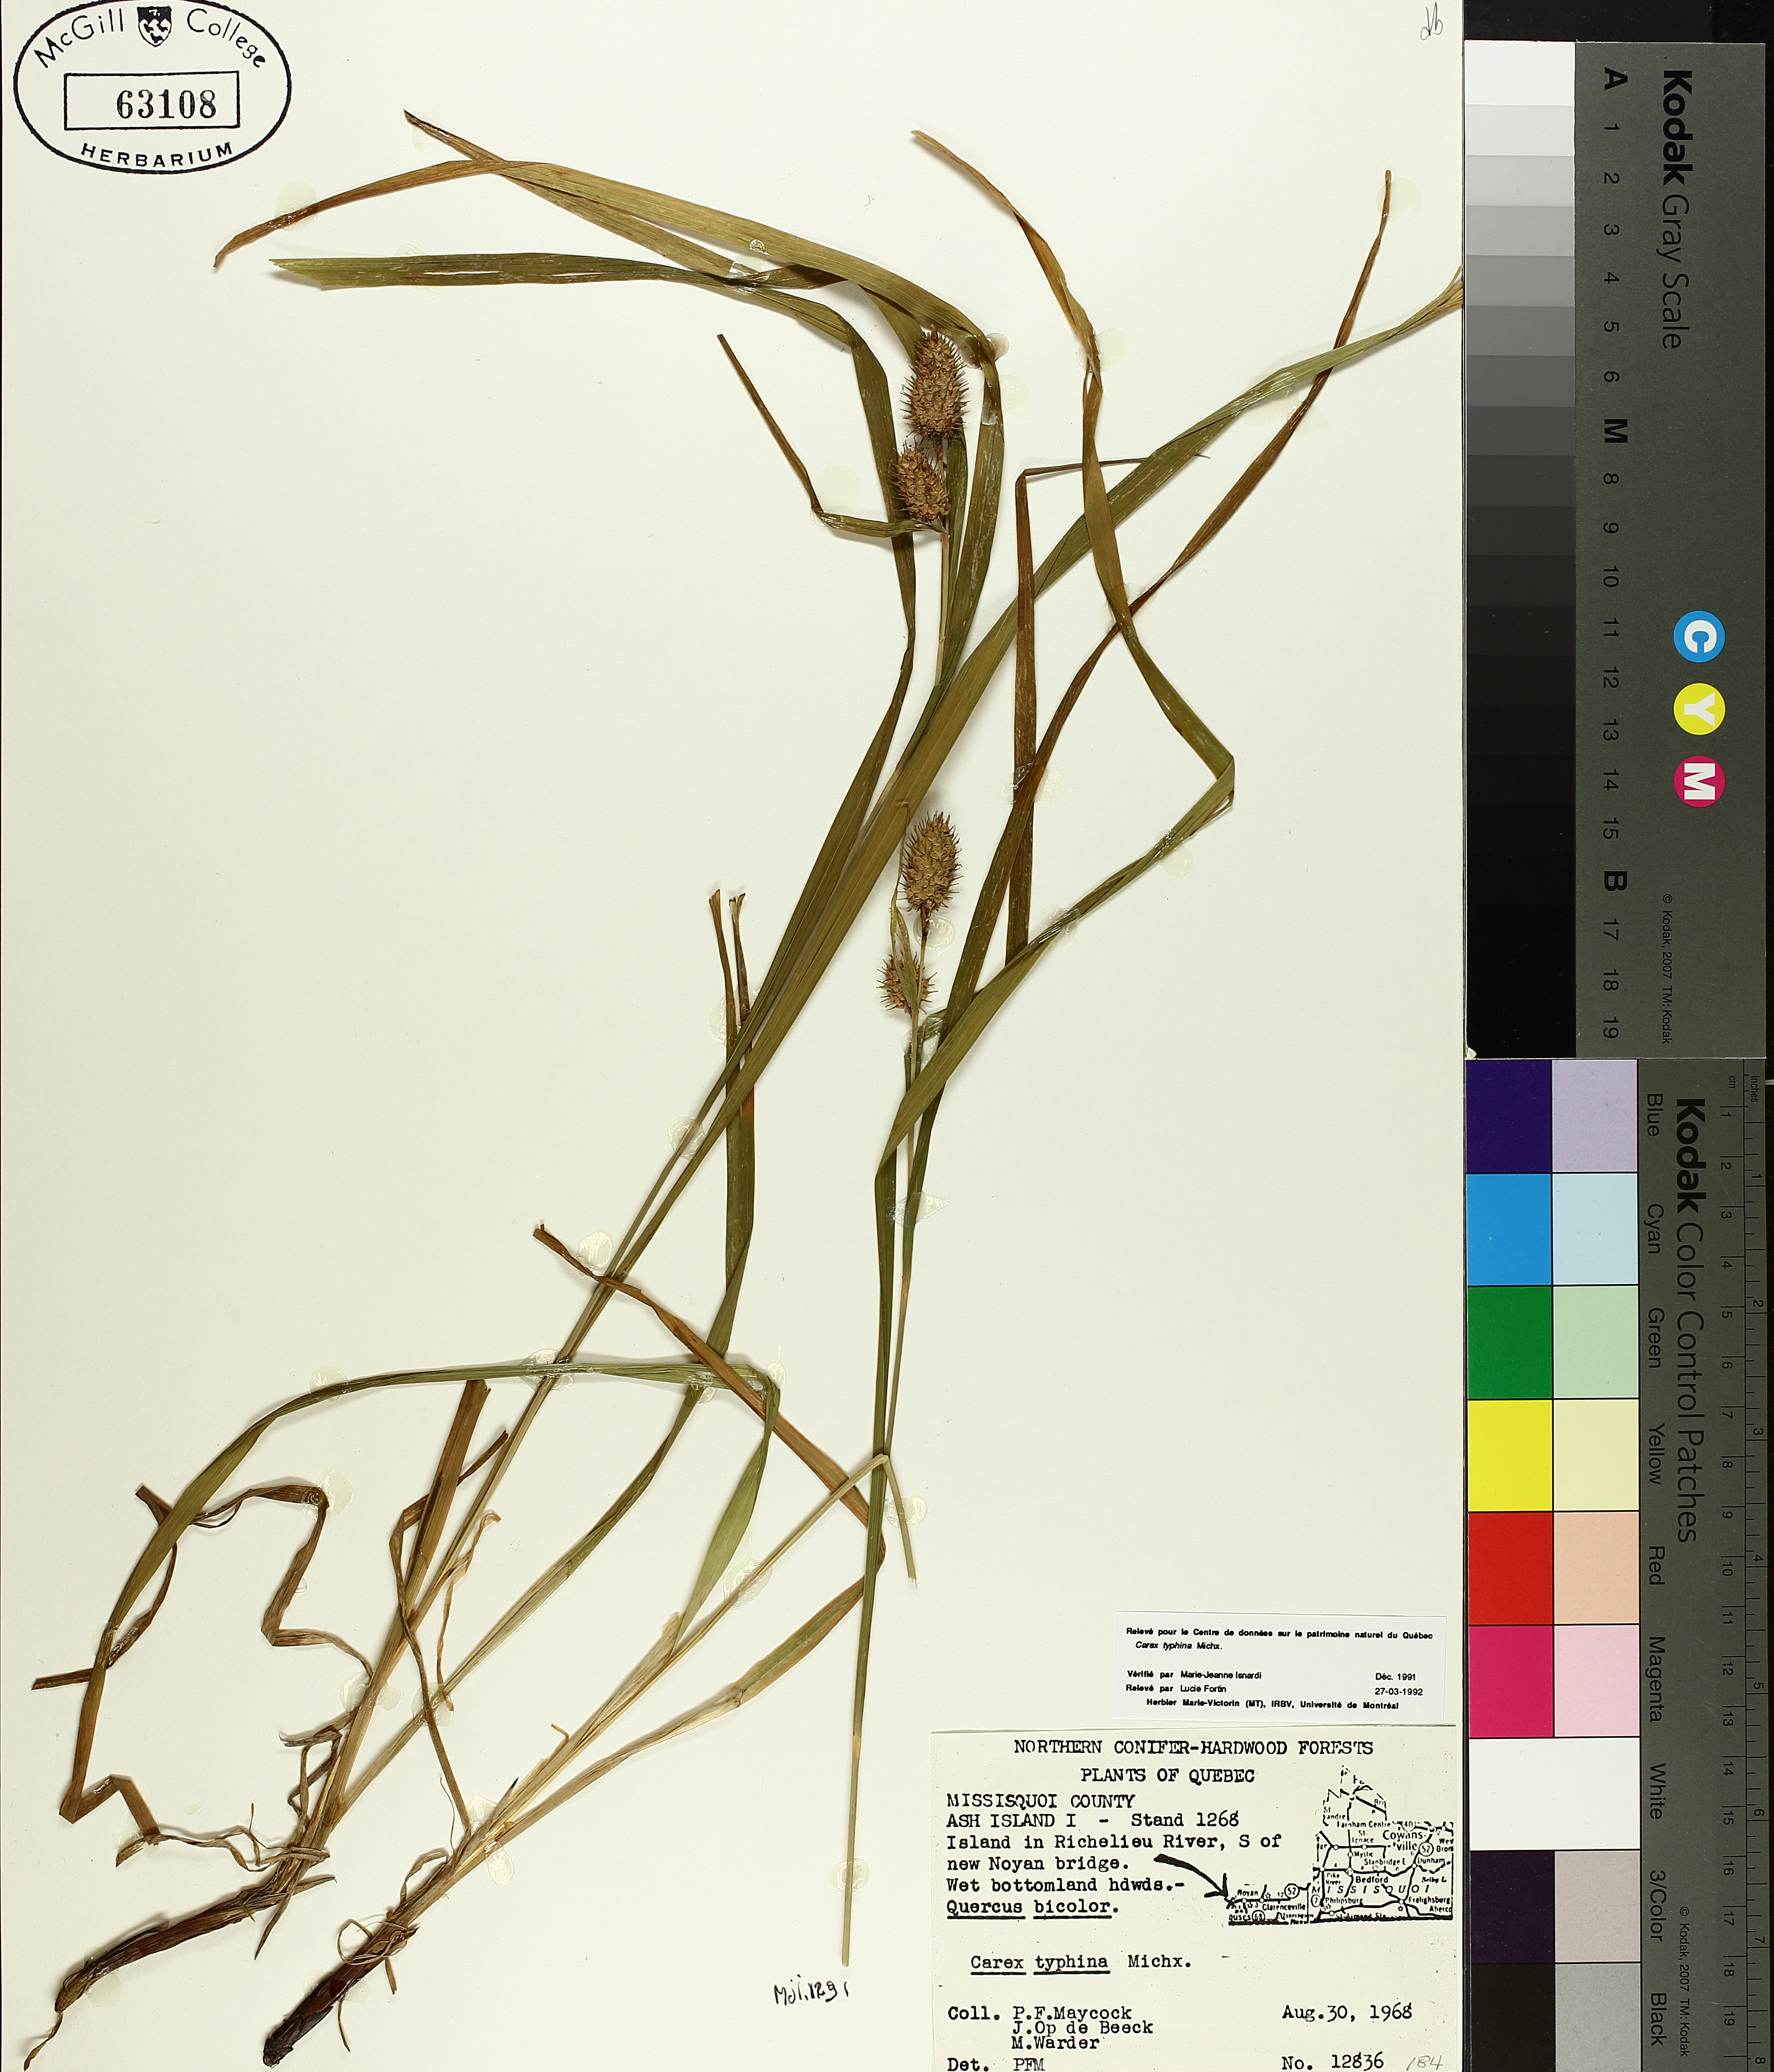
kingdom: Plantae
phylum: Tracheophyta
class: Liliopsida
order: Poales
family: Cyperaceae
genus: Carex
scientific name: Carex typhina
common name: Cattail sedge
